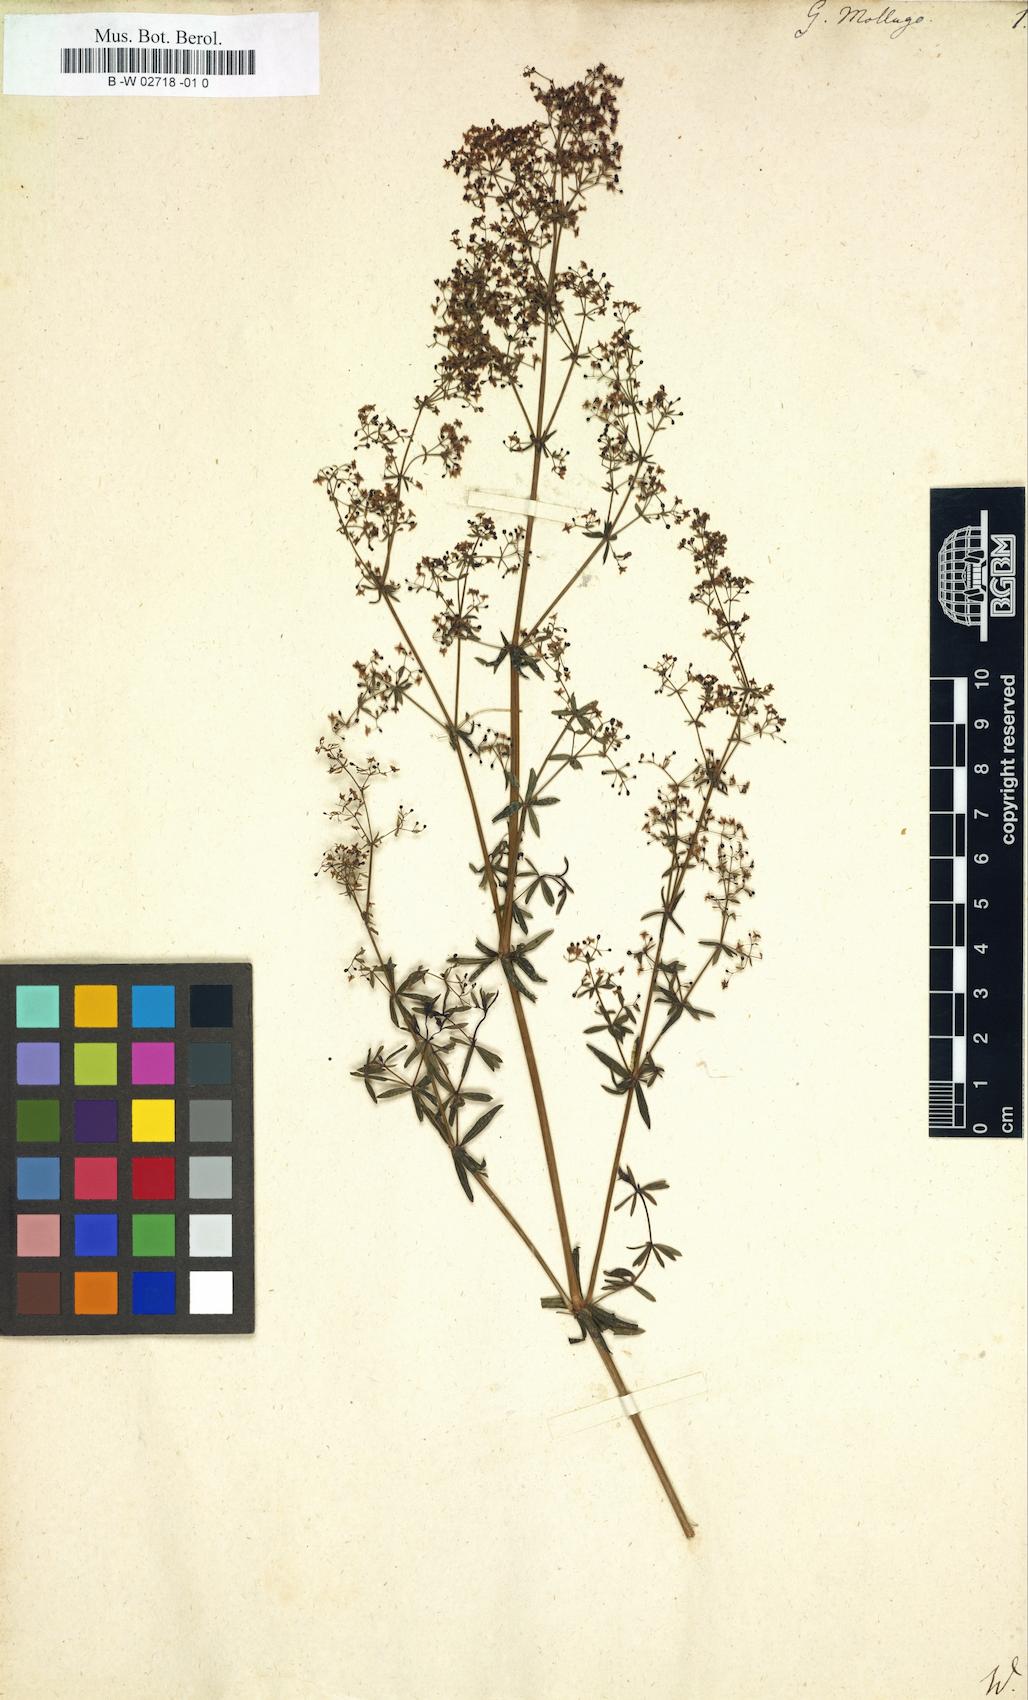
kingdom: Plantae
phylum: Tracheophyta
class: Magnoliopsida
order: Gentianales
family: Rubiaceae
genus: Galium
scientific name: Galium mollugo
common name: Hedge bedstraw
